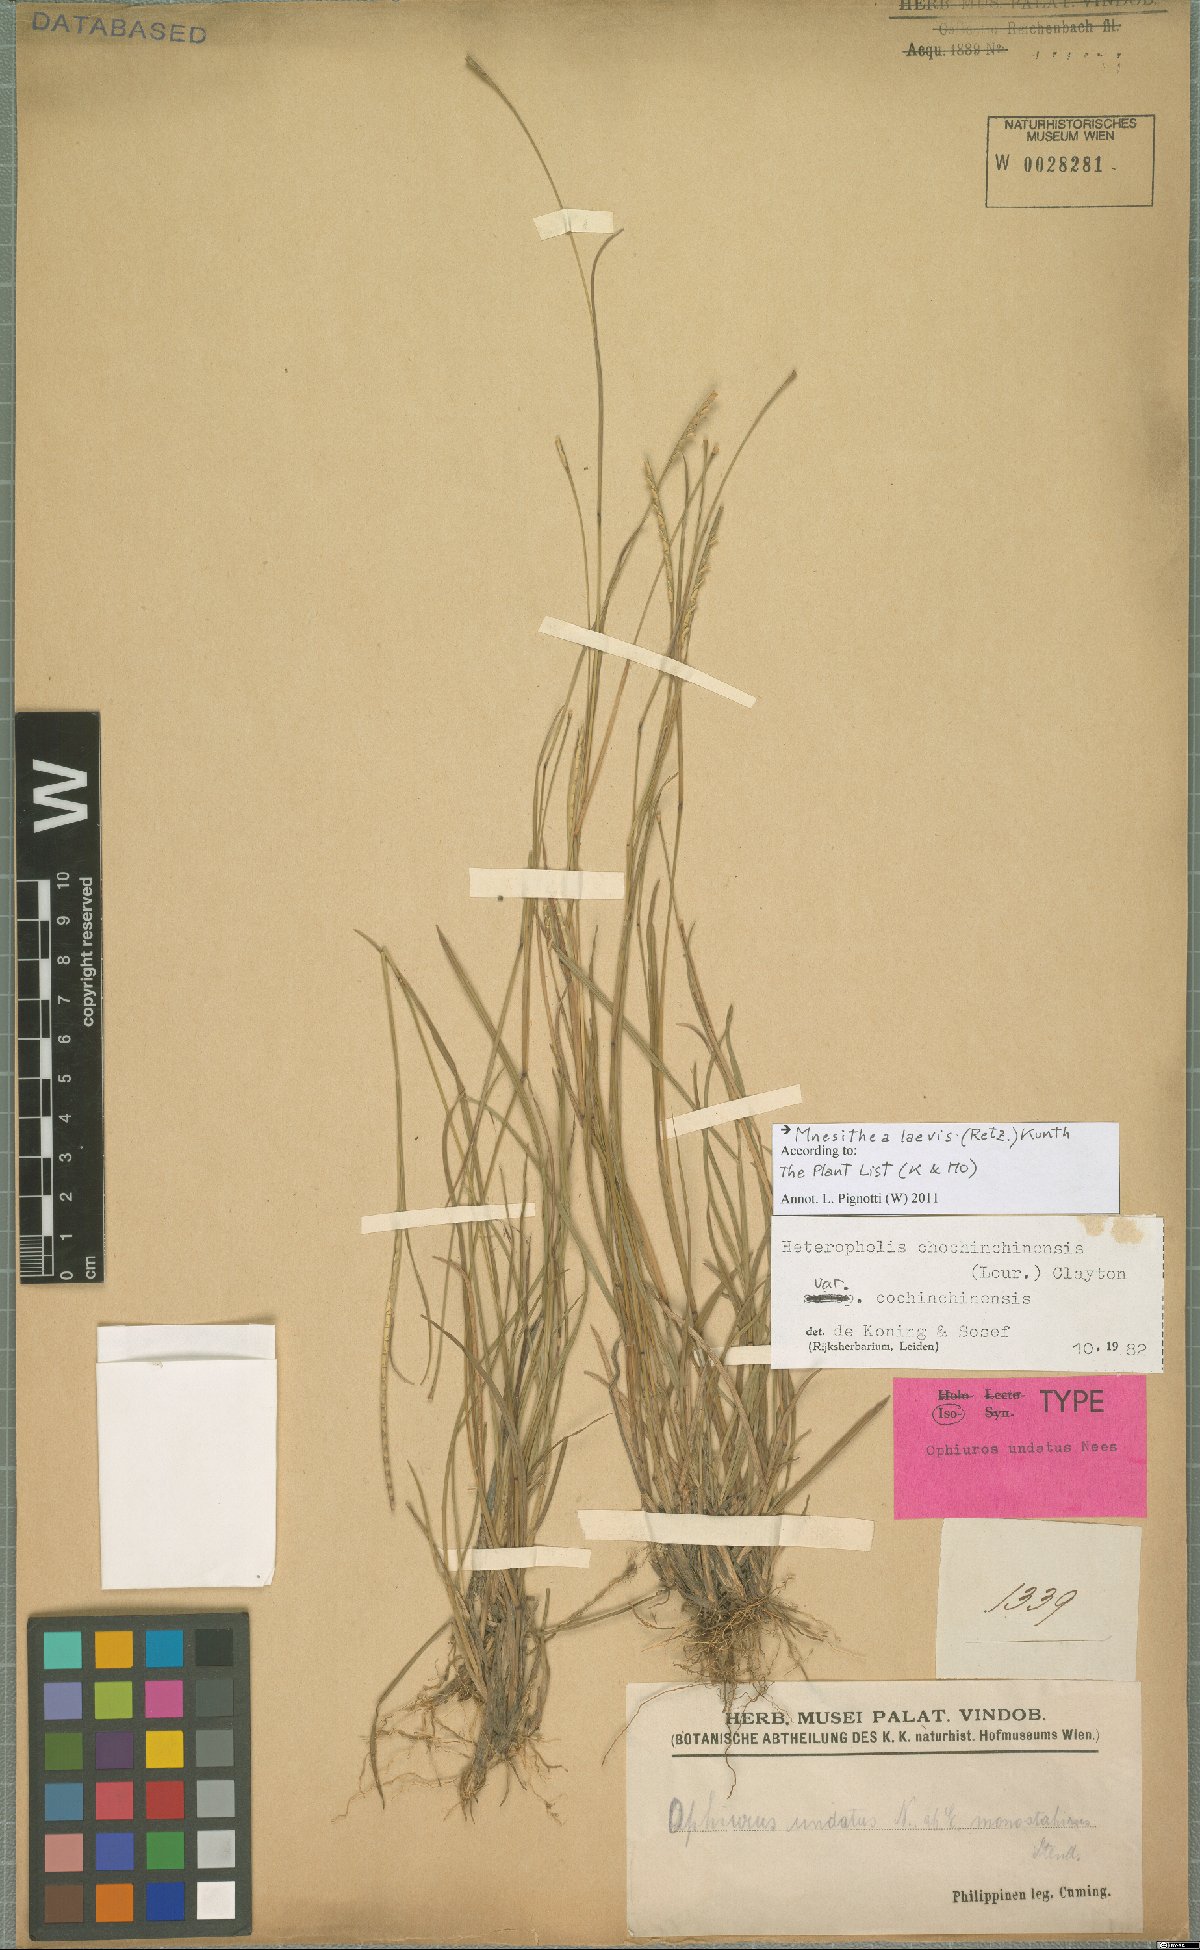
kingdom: Plantae
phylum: Tracheophyta
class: Liliopsida
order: Poales
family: Poaceae
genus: Mnesithea
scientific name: Mnesithea laevis
